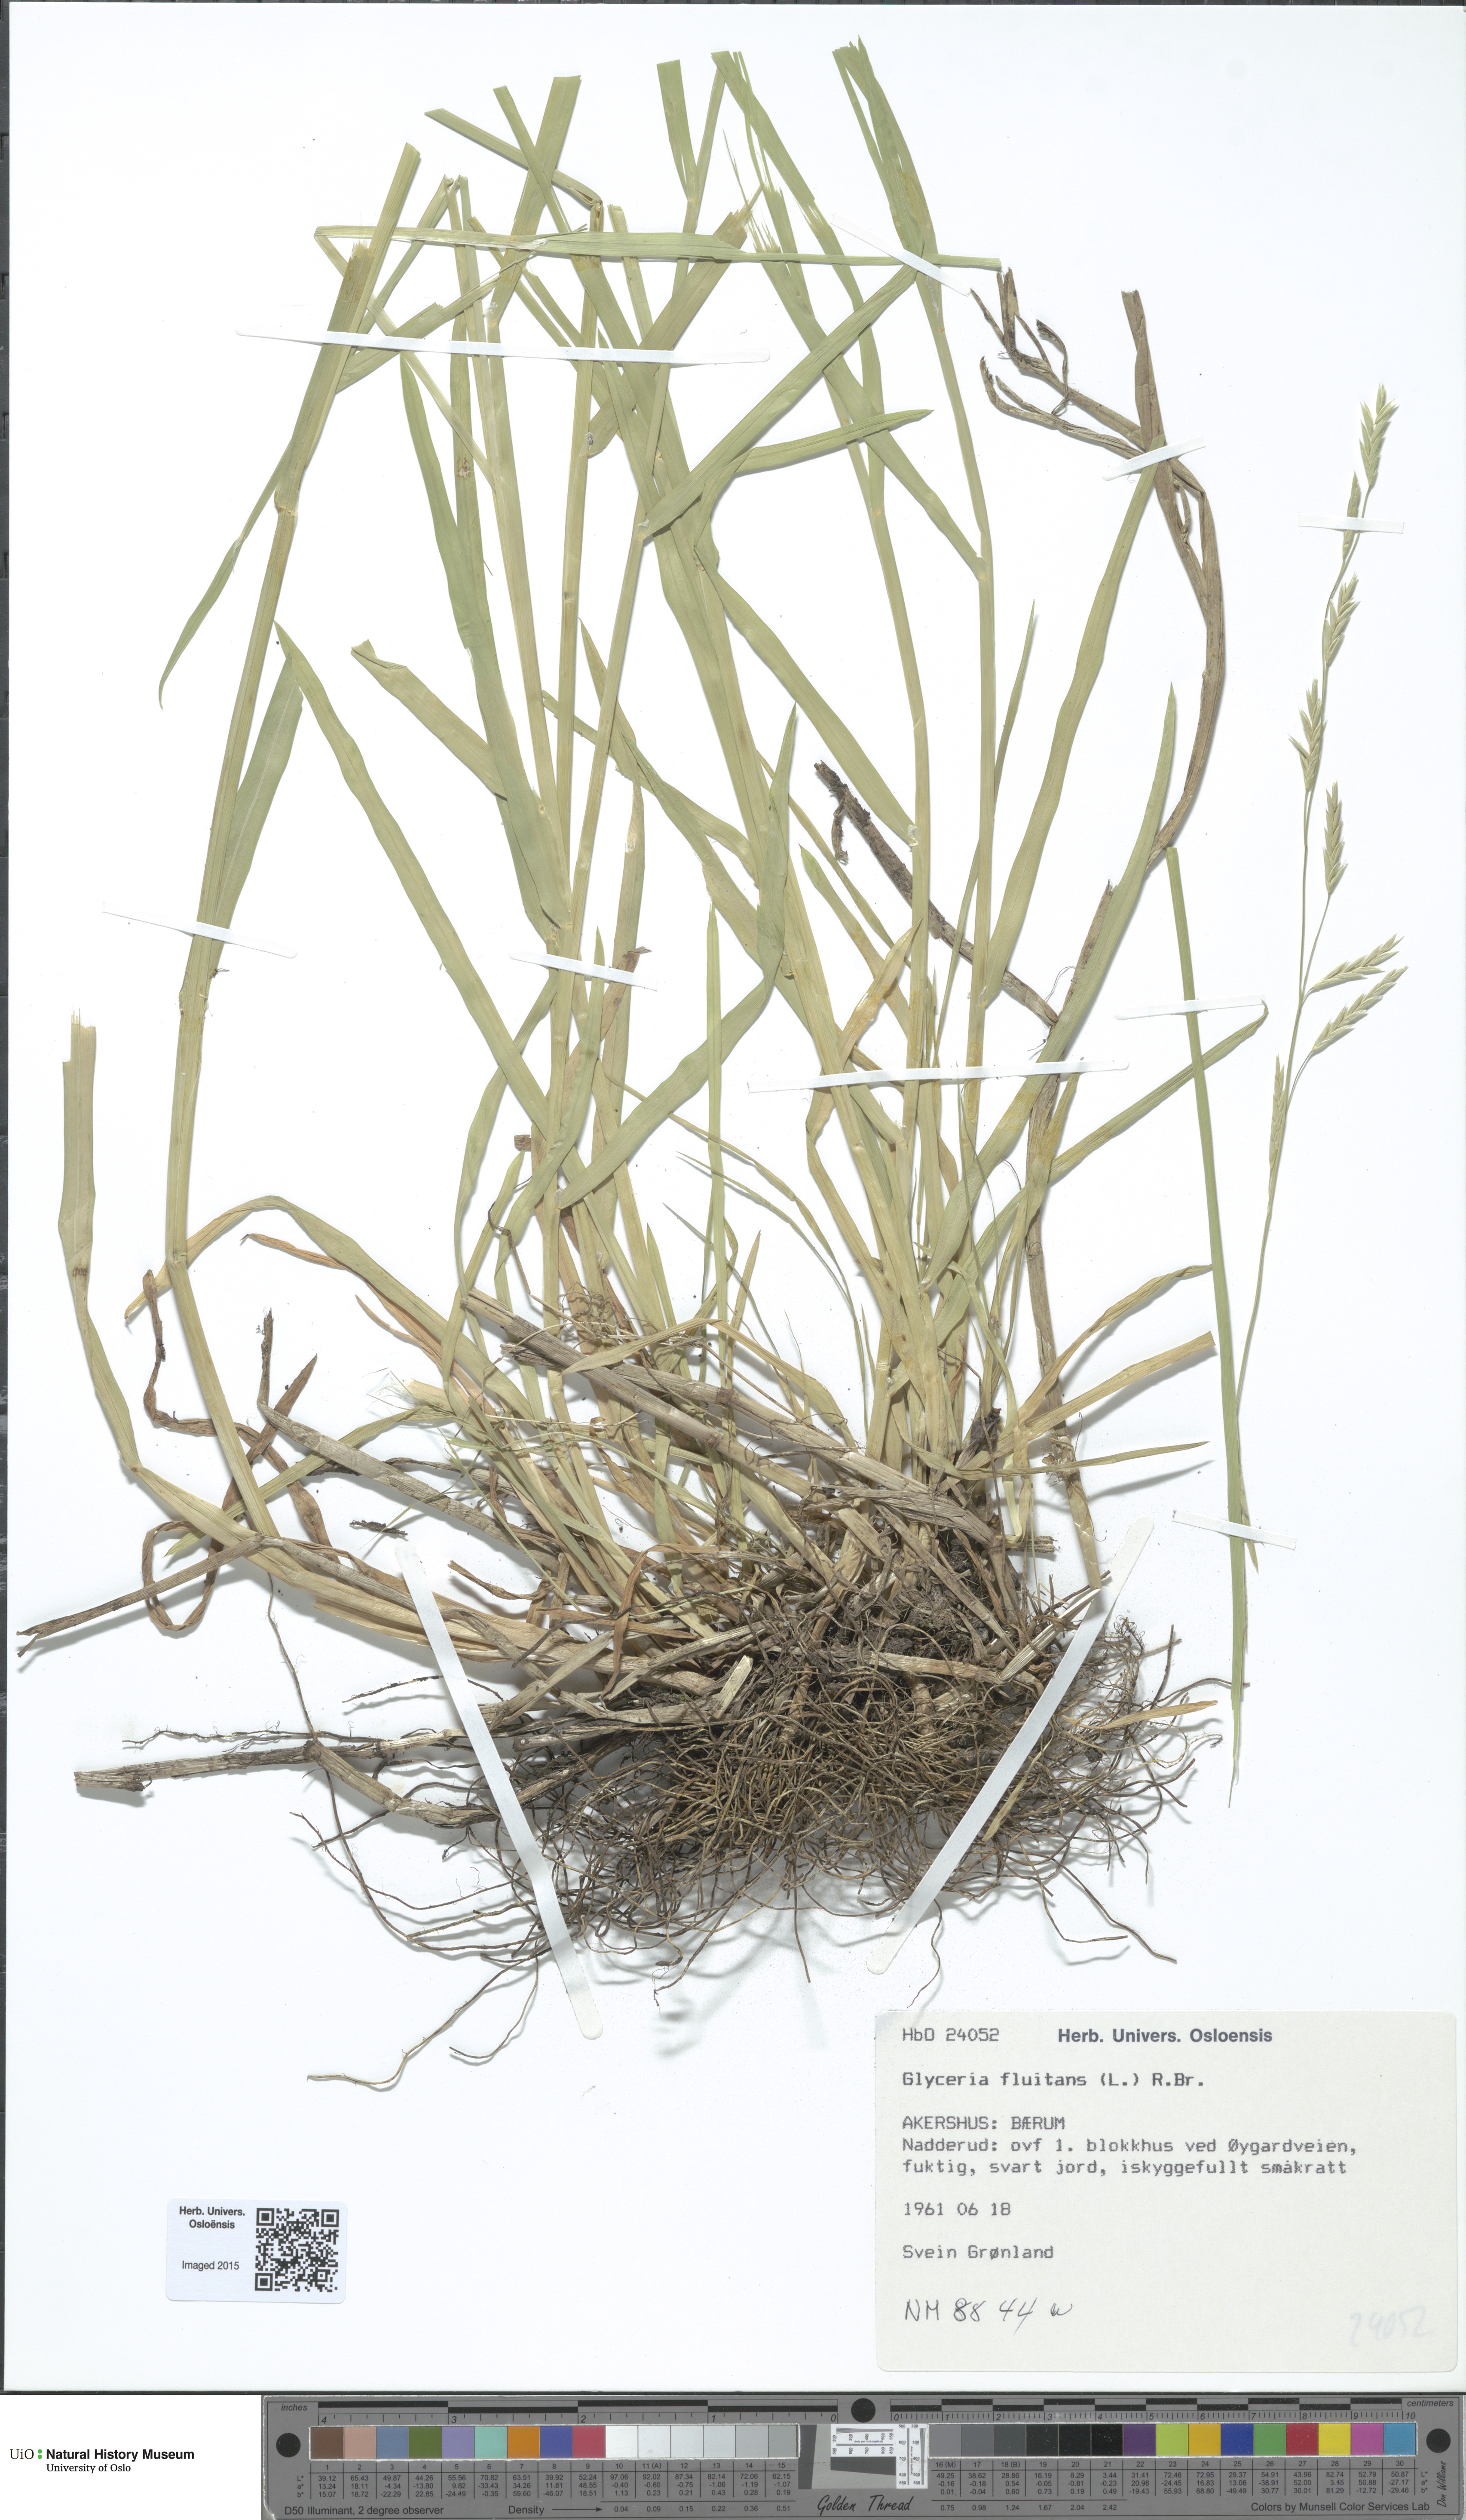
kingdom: Plantae
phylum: Tracheophyta
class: Liliopsida
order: Poales
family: Poaceae
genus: Glyceria
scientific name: Glyceria fluitans
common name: Floating sweet-grass
